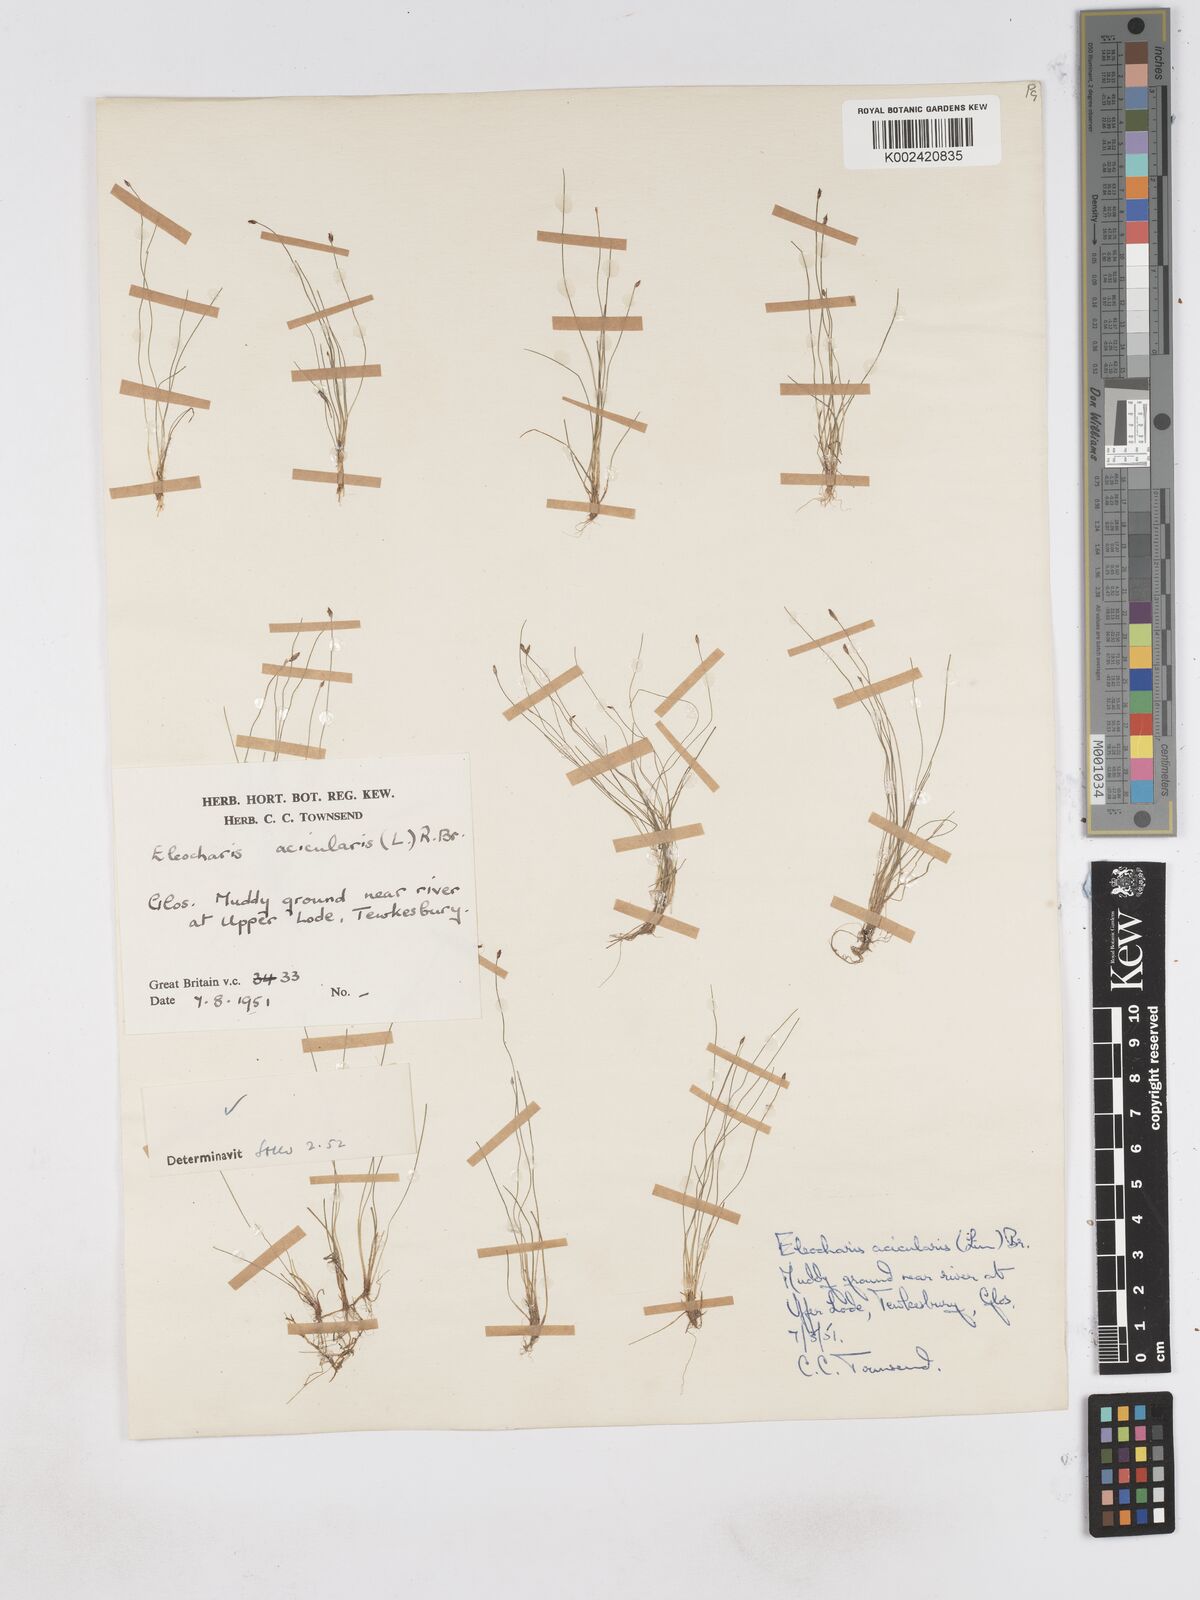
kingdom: Plantae
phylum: Tracheophyta
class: Liliopsida
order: Poales
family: Cyperaceae
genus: Eleocharis
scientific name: Eleocharis acicularis
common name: Needle spike-rush
